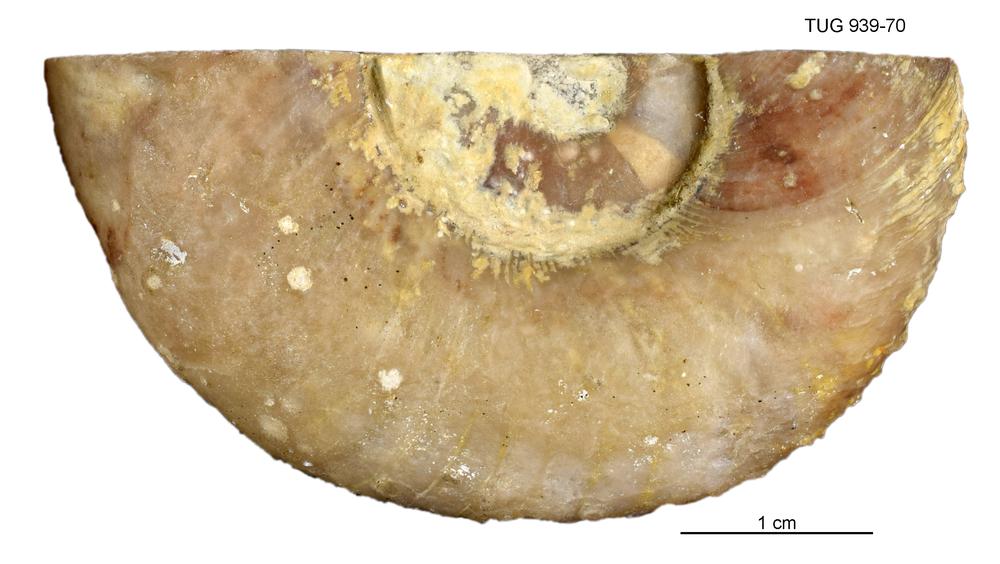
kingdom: Animalia
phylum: Mollusca
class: Cephalopoda
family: Trocholitidae
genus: Discoceras
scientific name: Discoceras Schroederoceras vasalemmense
